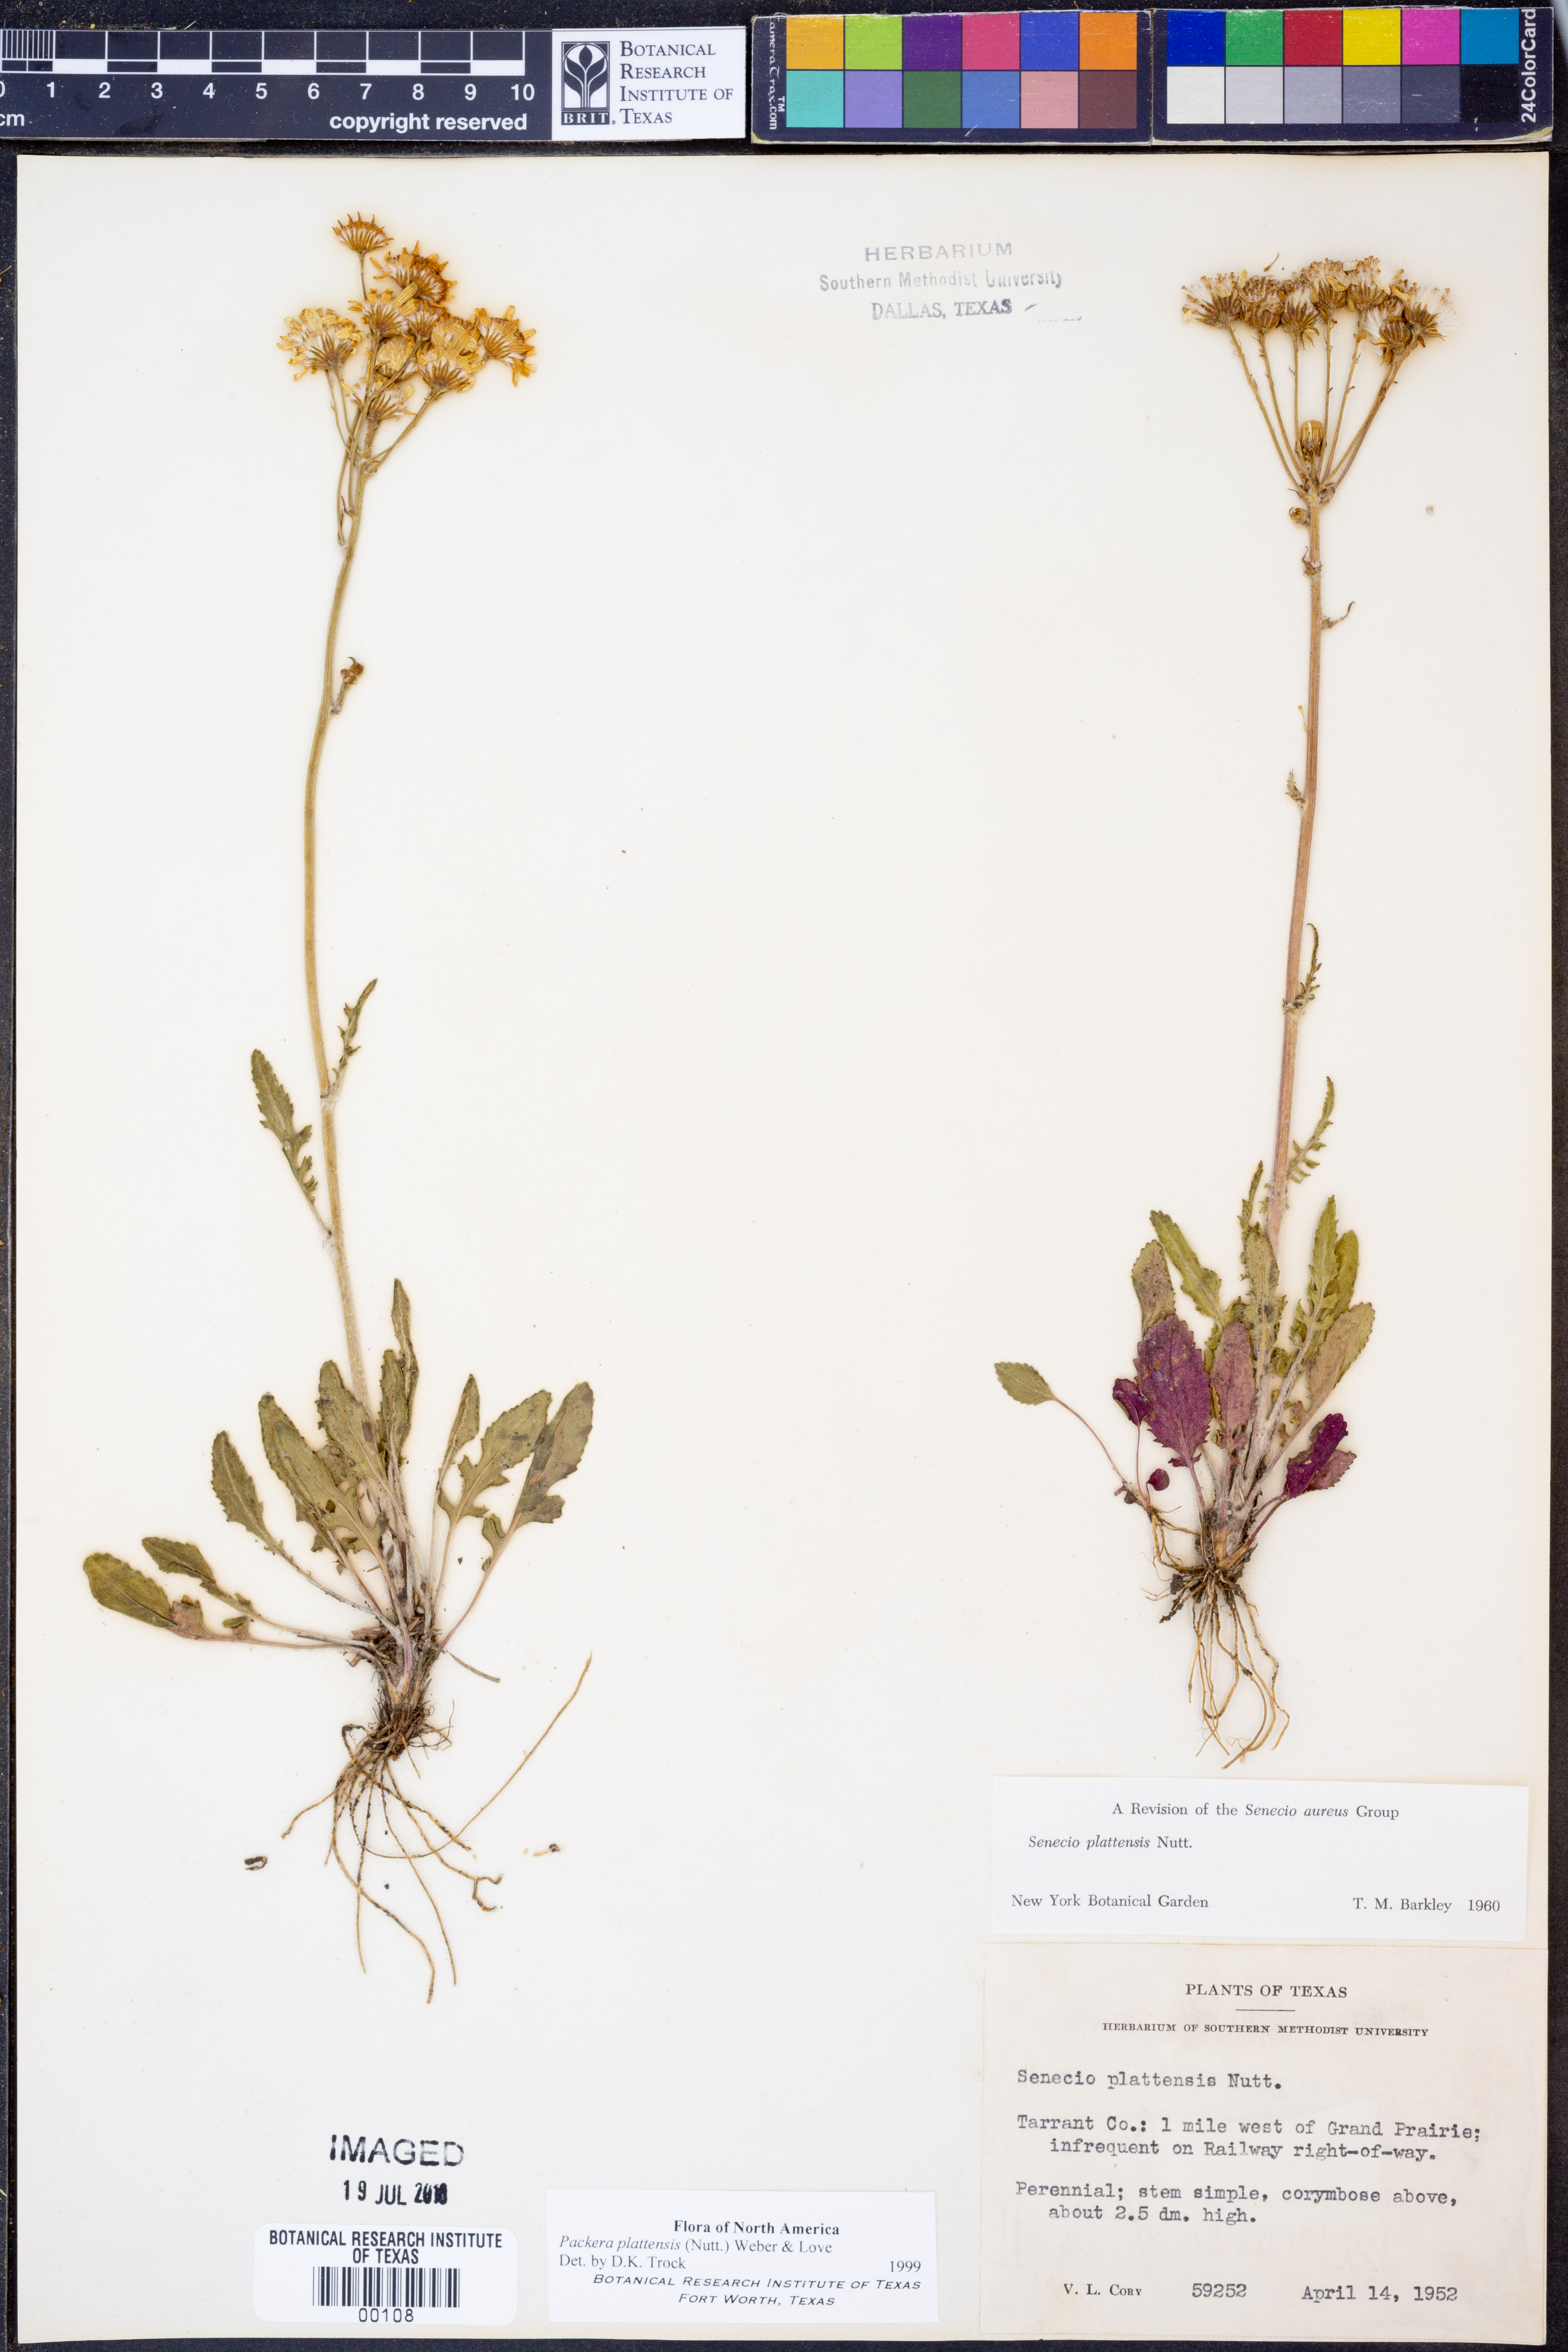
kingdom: Plantae
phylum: Tracheophyta
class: Magnoliopsida
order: Asterales
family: Asteraceae
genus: Packera
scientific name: Packera plattensis
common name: Prairie groundsel
